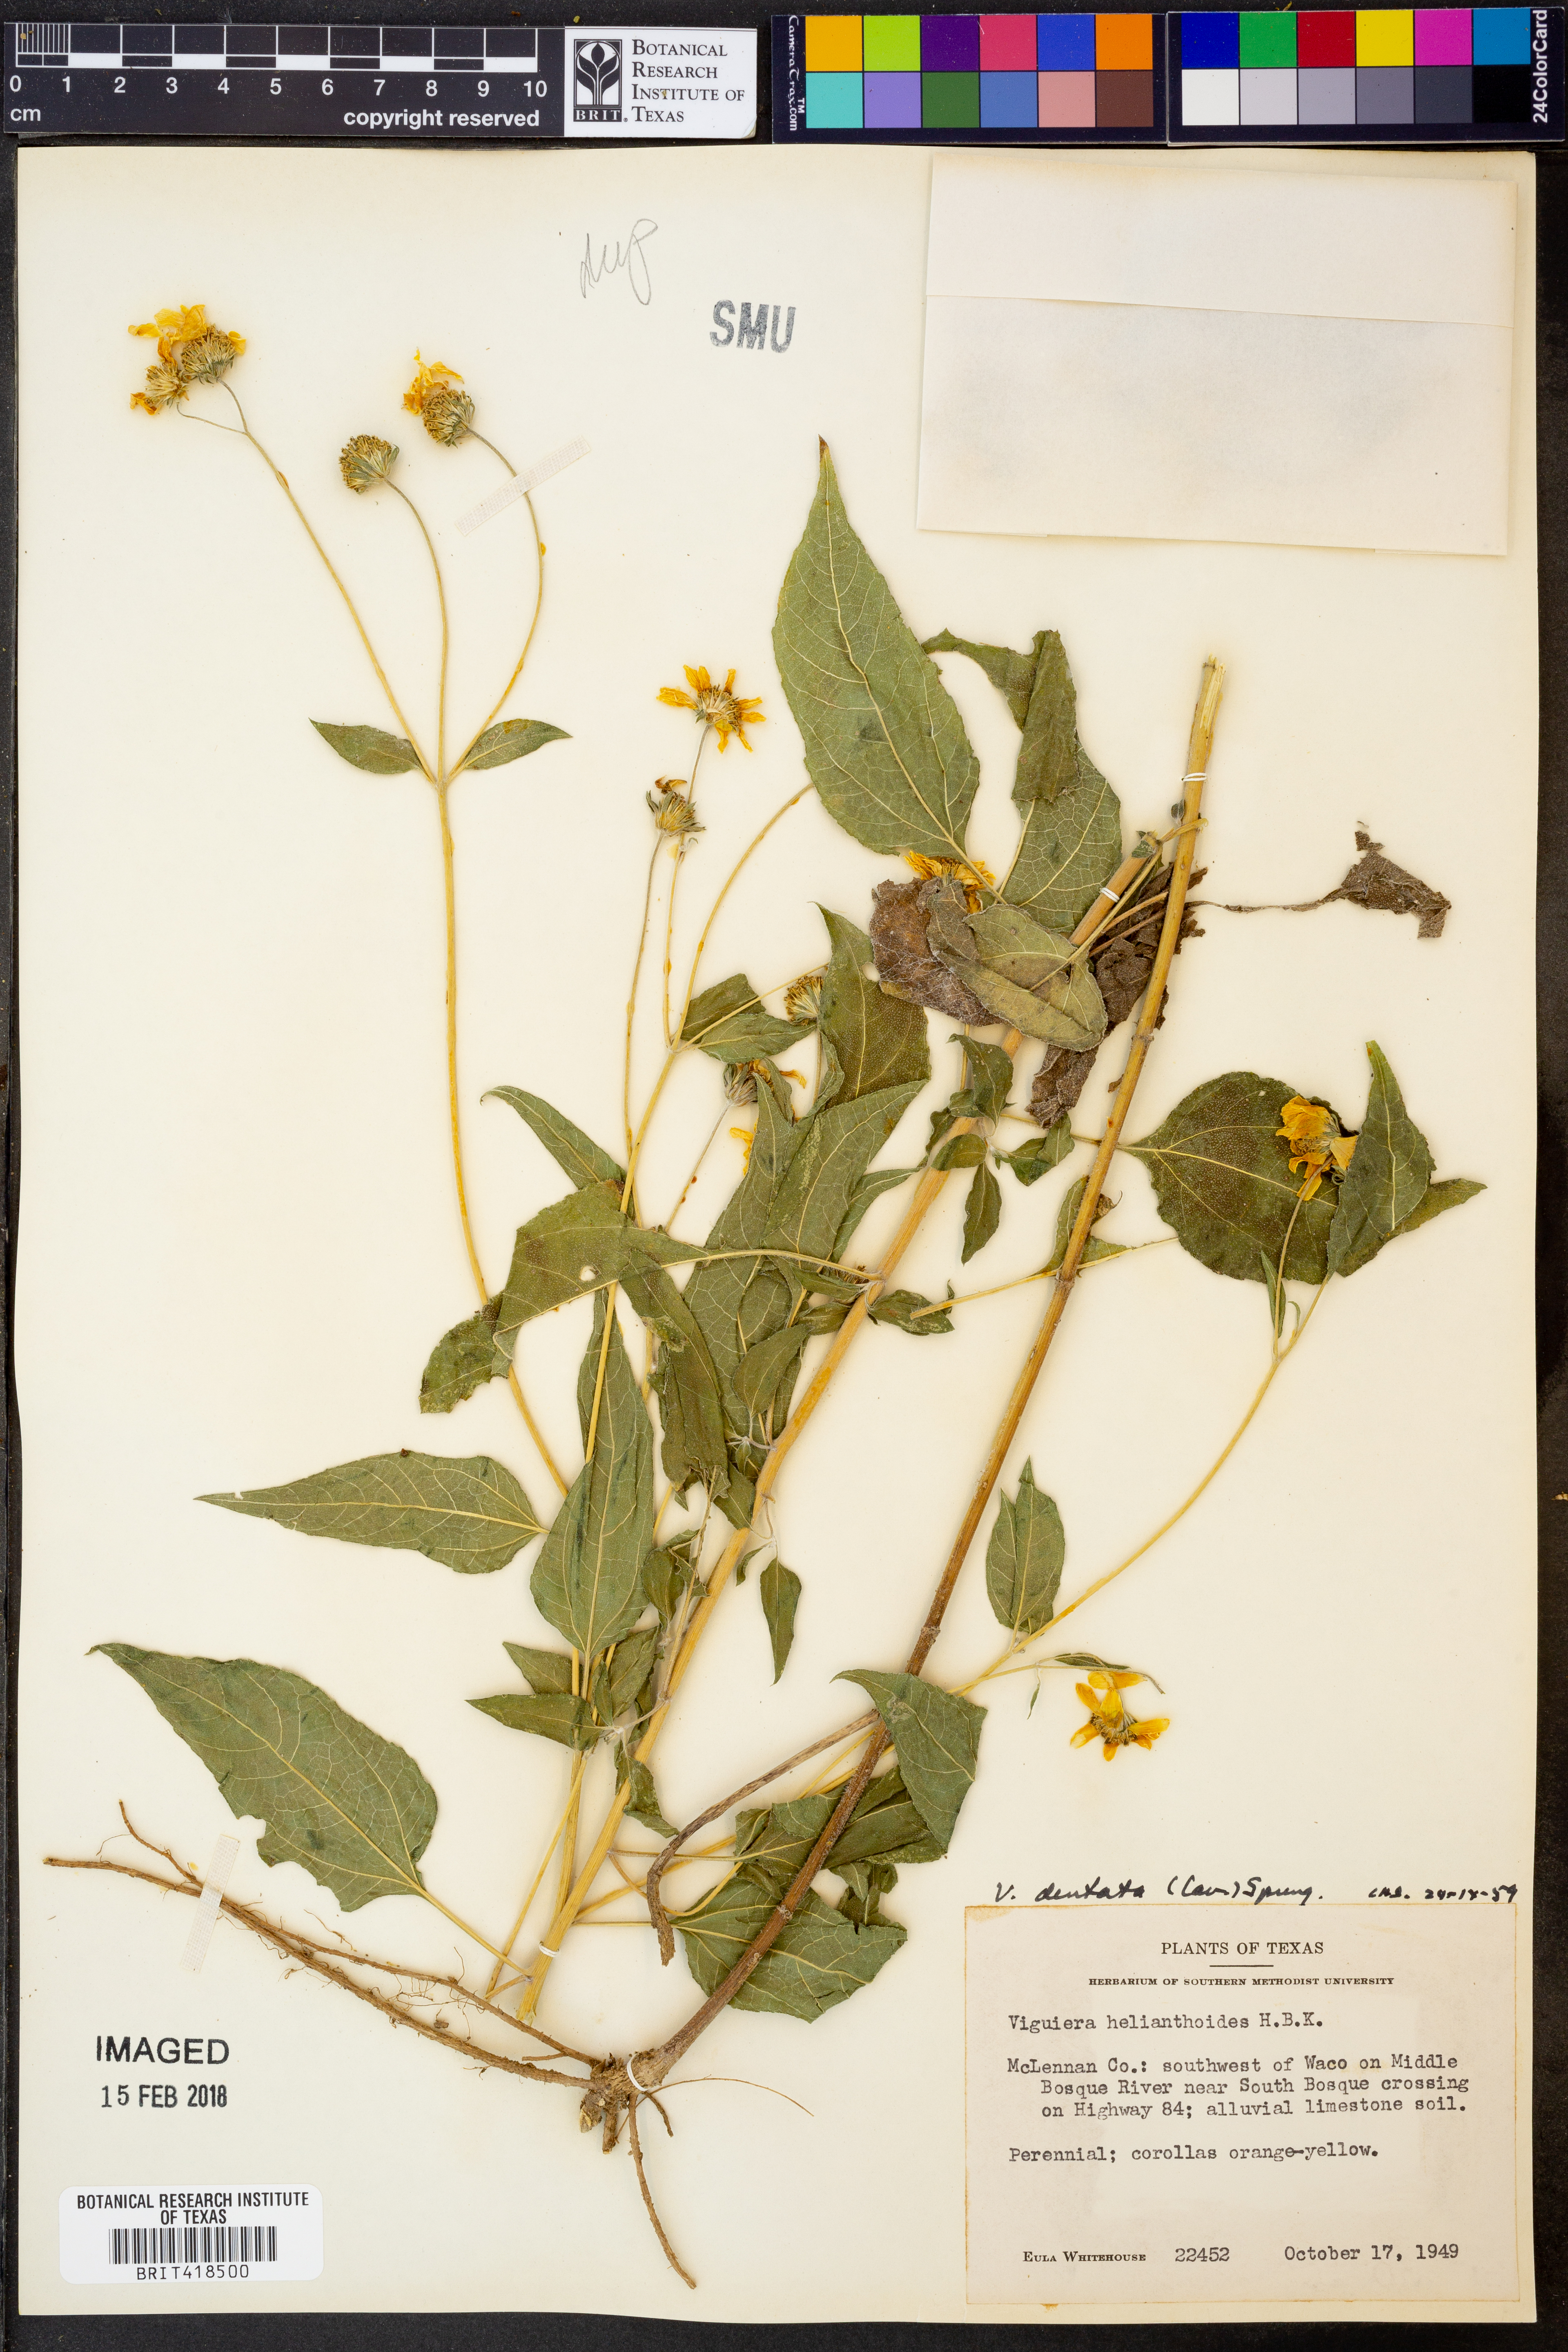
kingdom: Plantae
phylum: Tracheophyta
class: Magnoliopsida
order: Asterales
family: Asteraceae
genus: Viguiera
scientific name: Viguiera dentata
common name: Toothleaf
